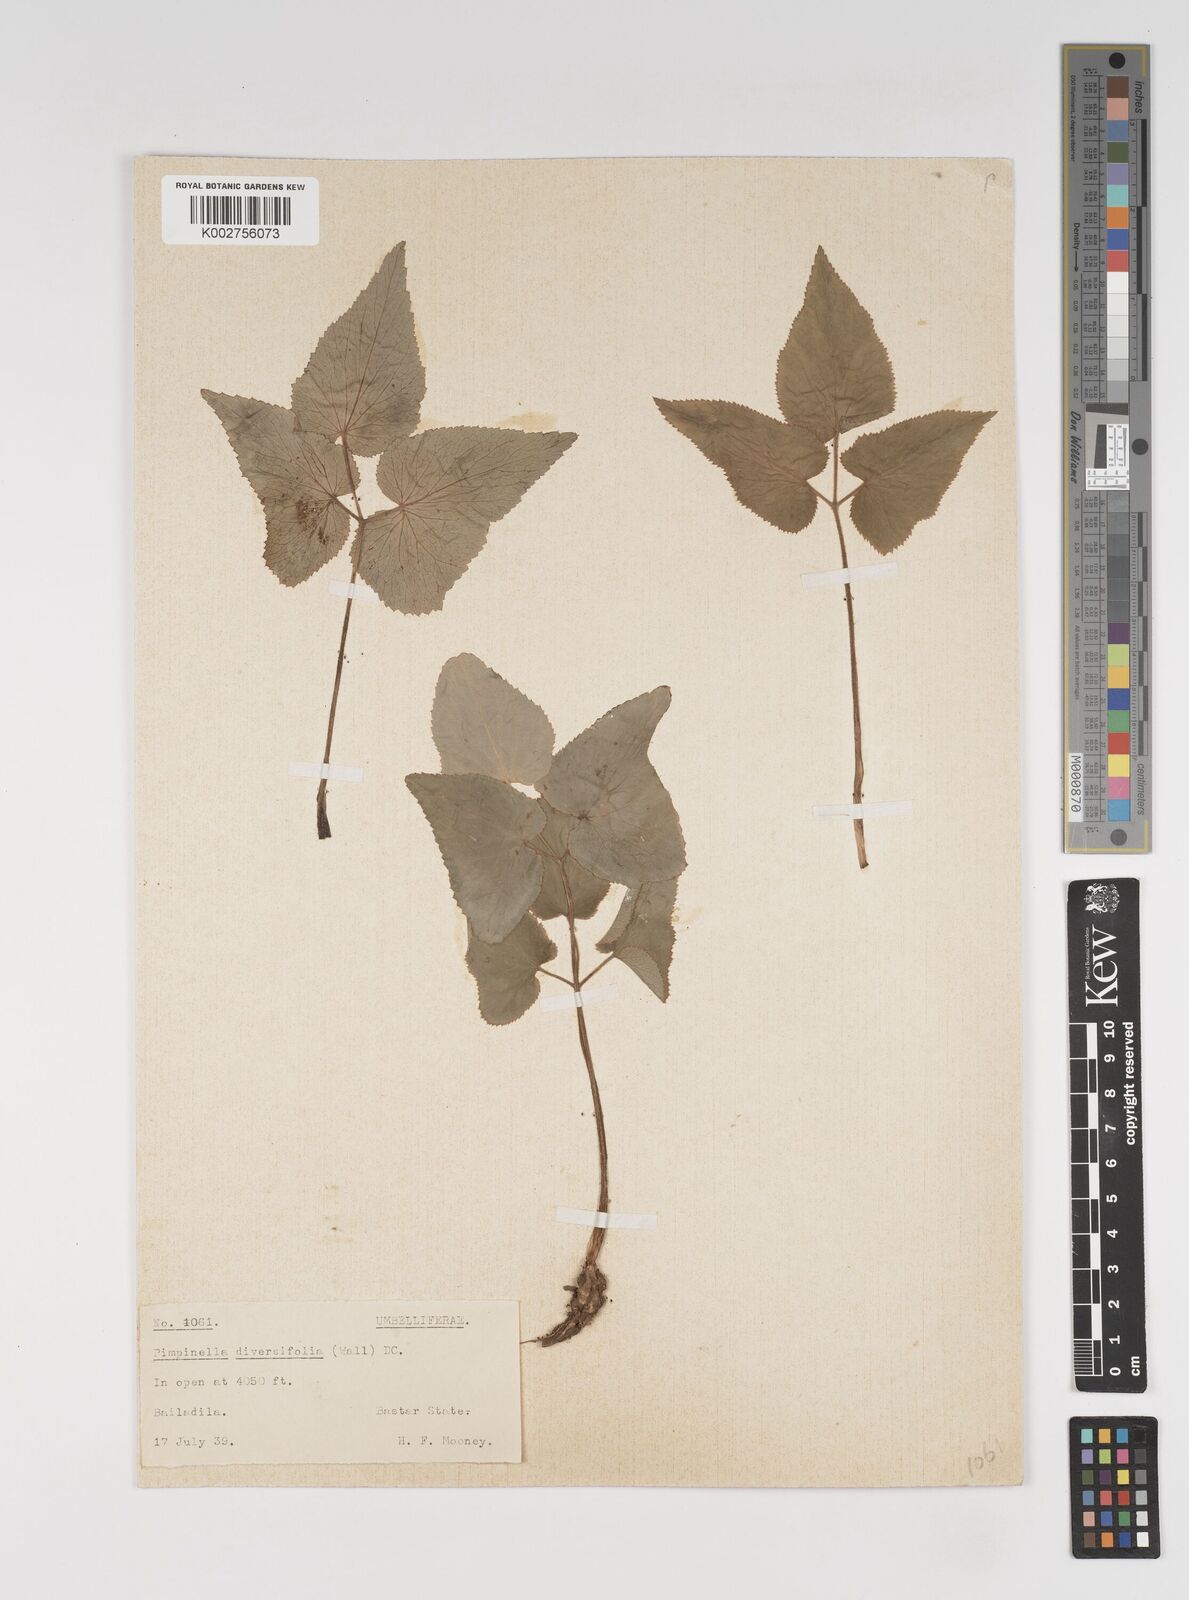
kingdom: Plantae
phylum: Tracheophyta
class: Magnoliopsida
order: Apiales
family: Apiaceae
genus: Pimpinella
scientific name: Pimpinella diversifolia
